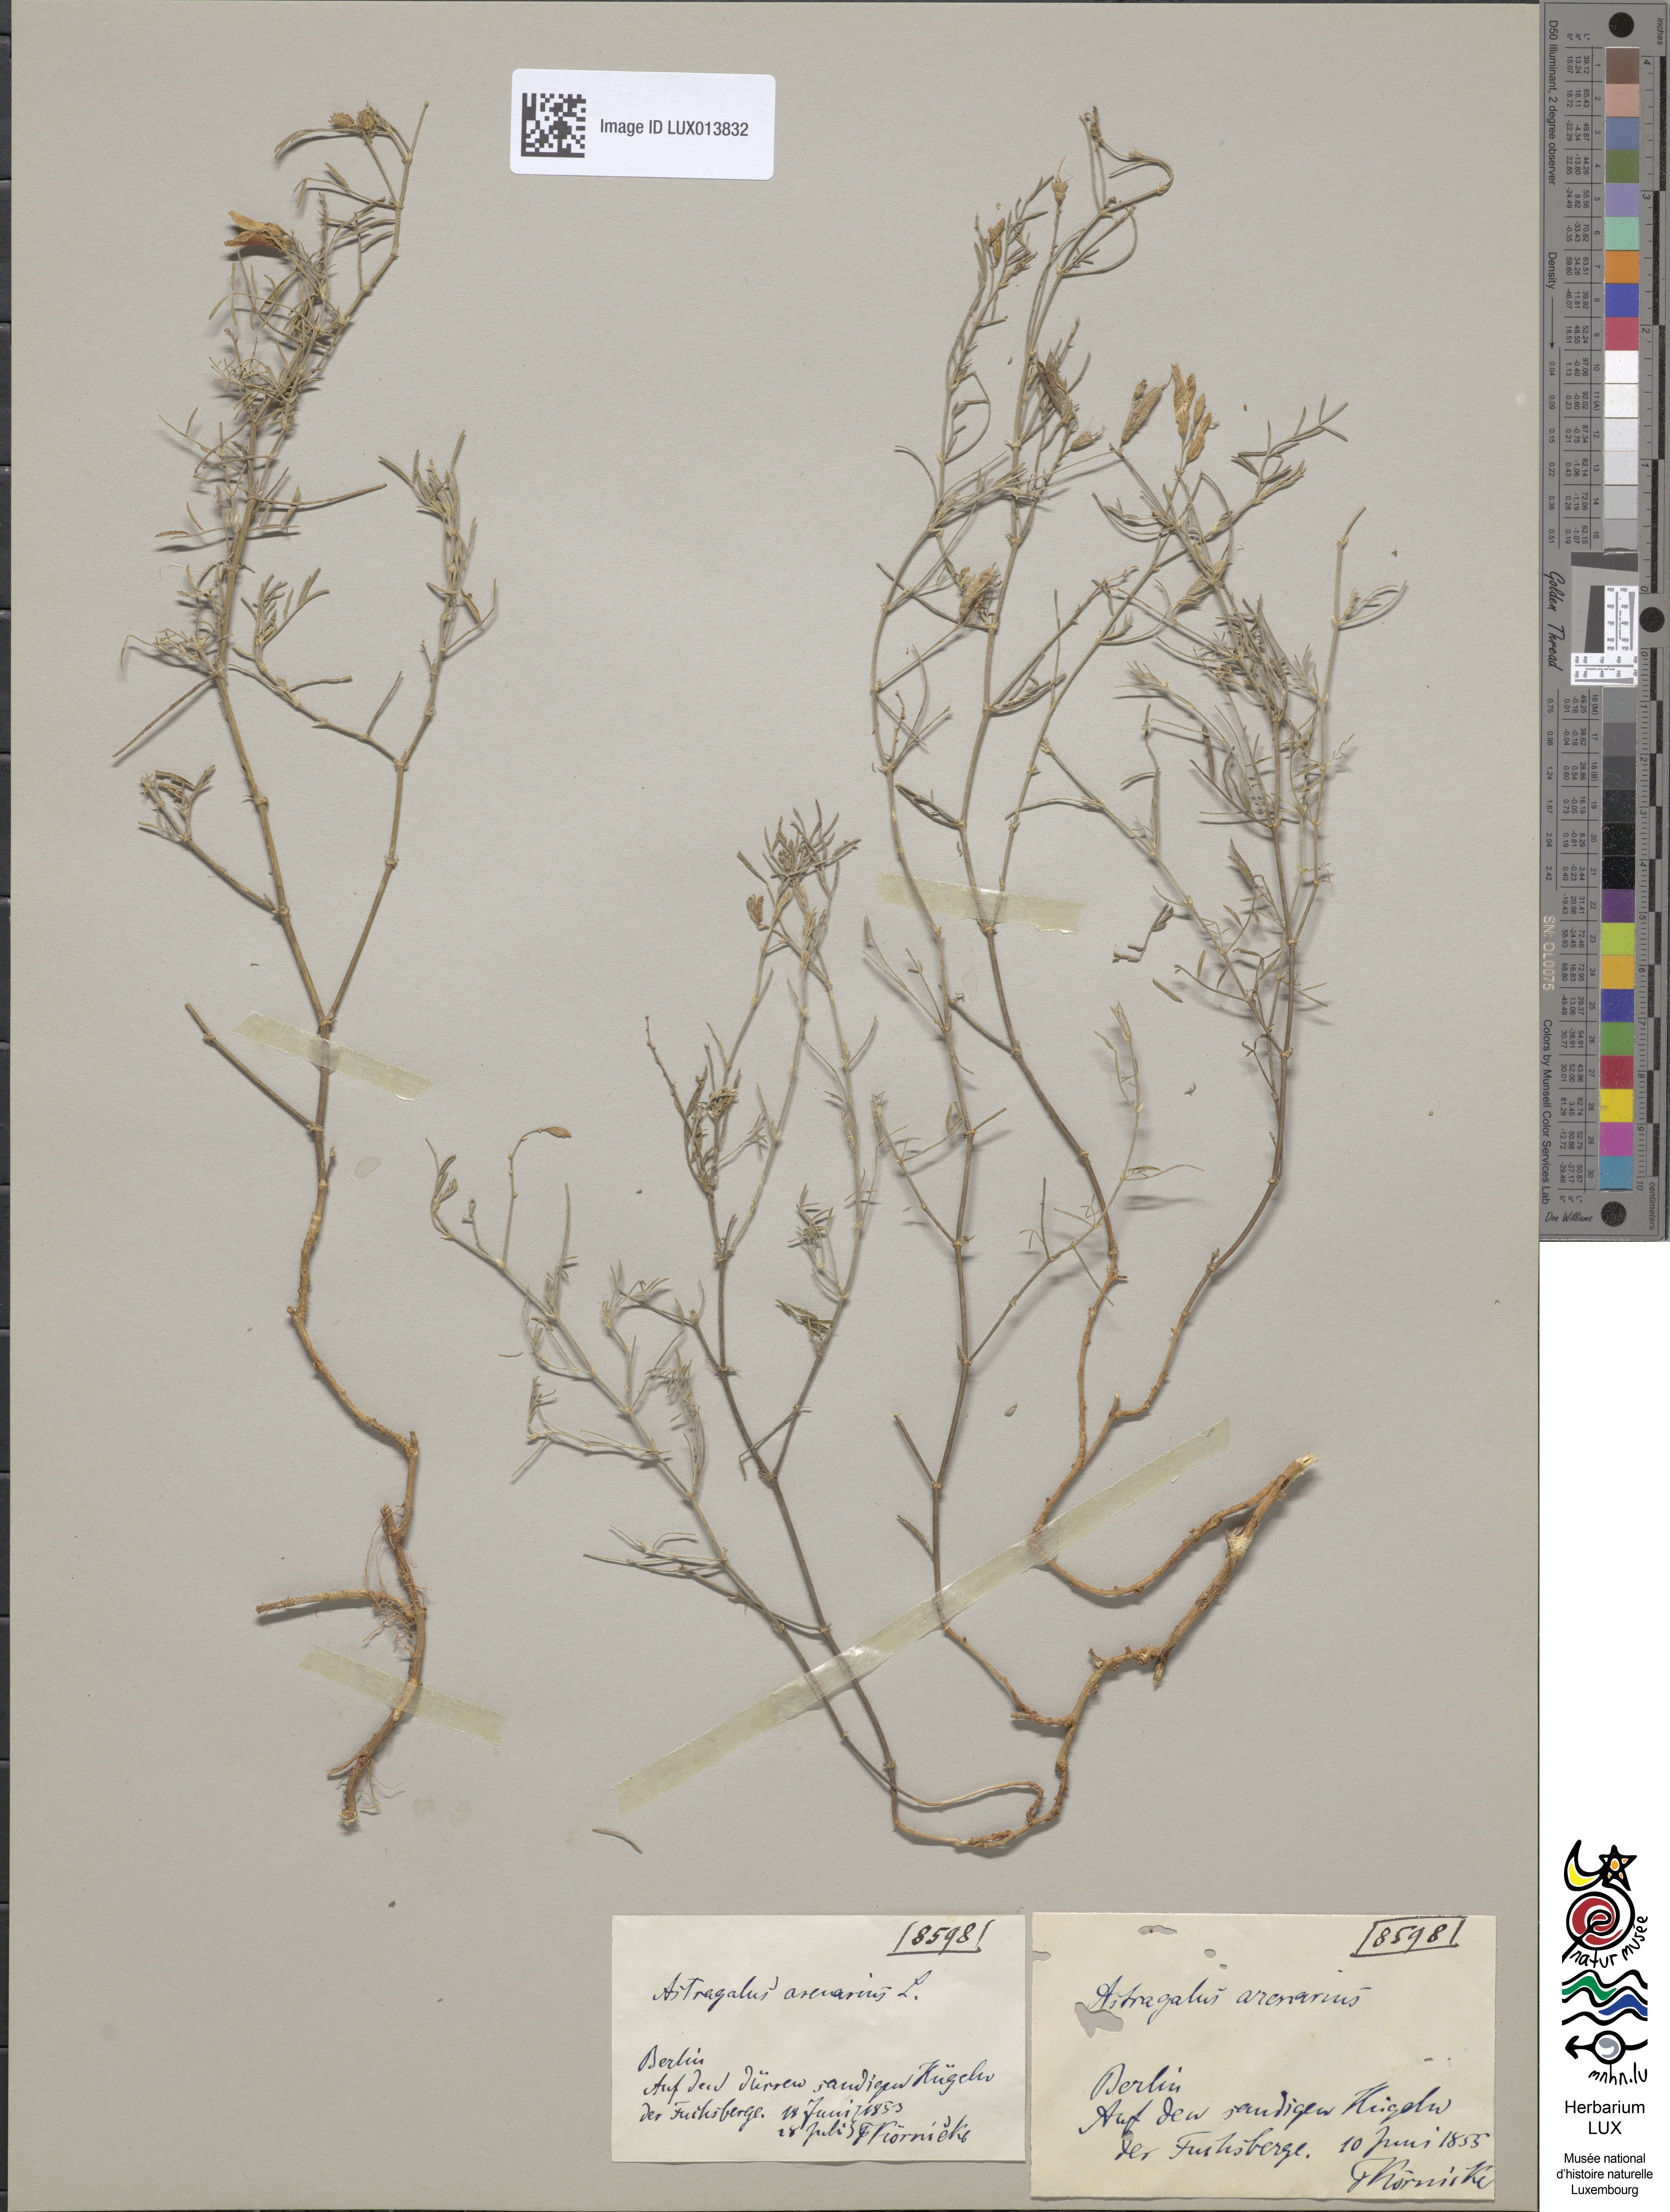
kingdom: Plantae
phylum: Tracheophyta
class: Magnoliopsida
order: Fabales
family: Fabaceae
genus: Astragalus
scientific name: Astragalus arenarius
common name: Arenarious milk-vetch
